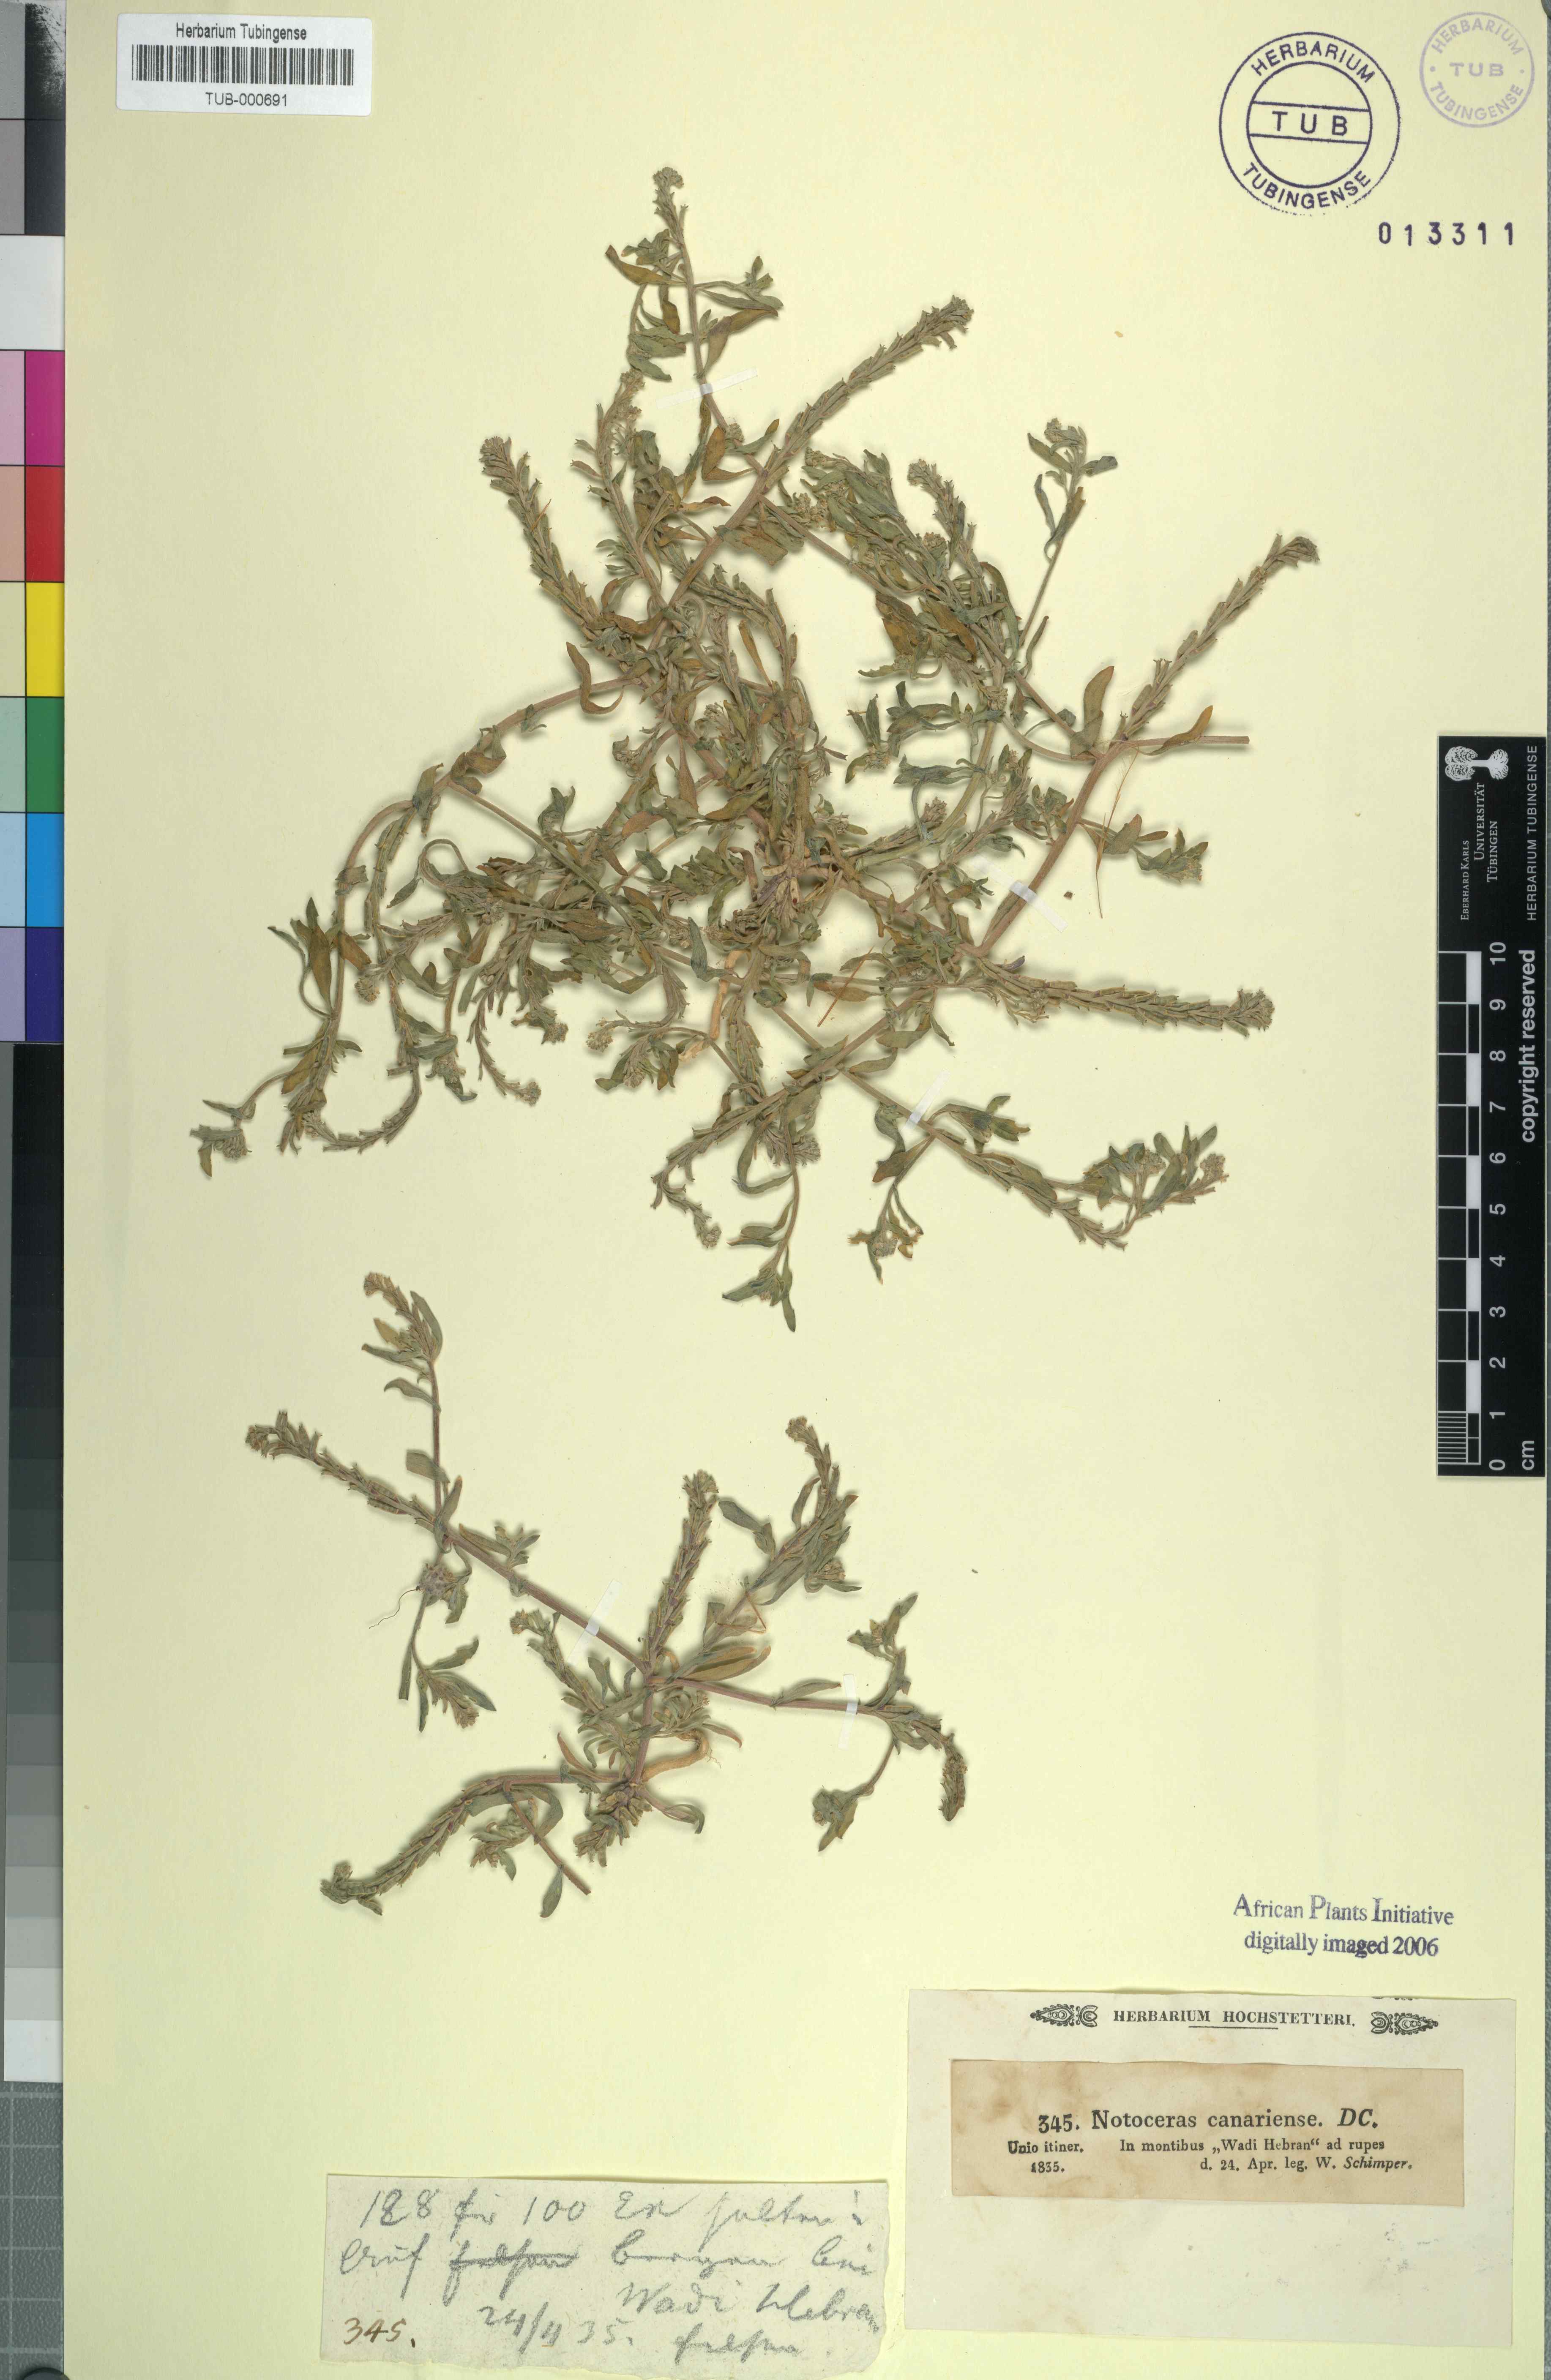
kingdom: Plantae
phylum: Tracheophyta
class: Magnoliopsida
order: Brassicales
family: Brassicaceae
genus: Notoceras
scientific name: Notoceras bicorne
